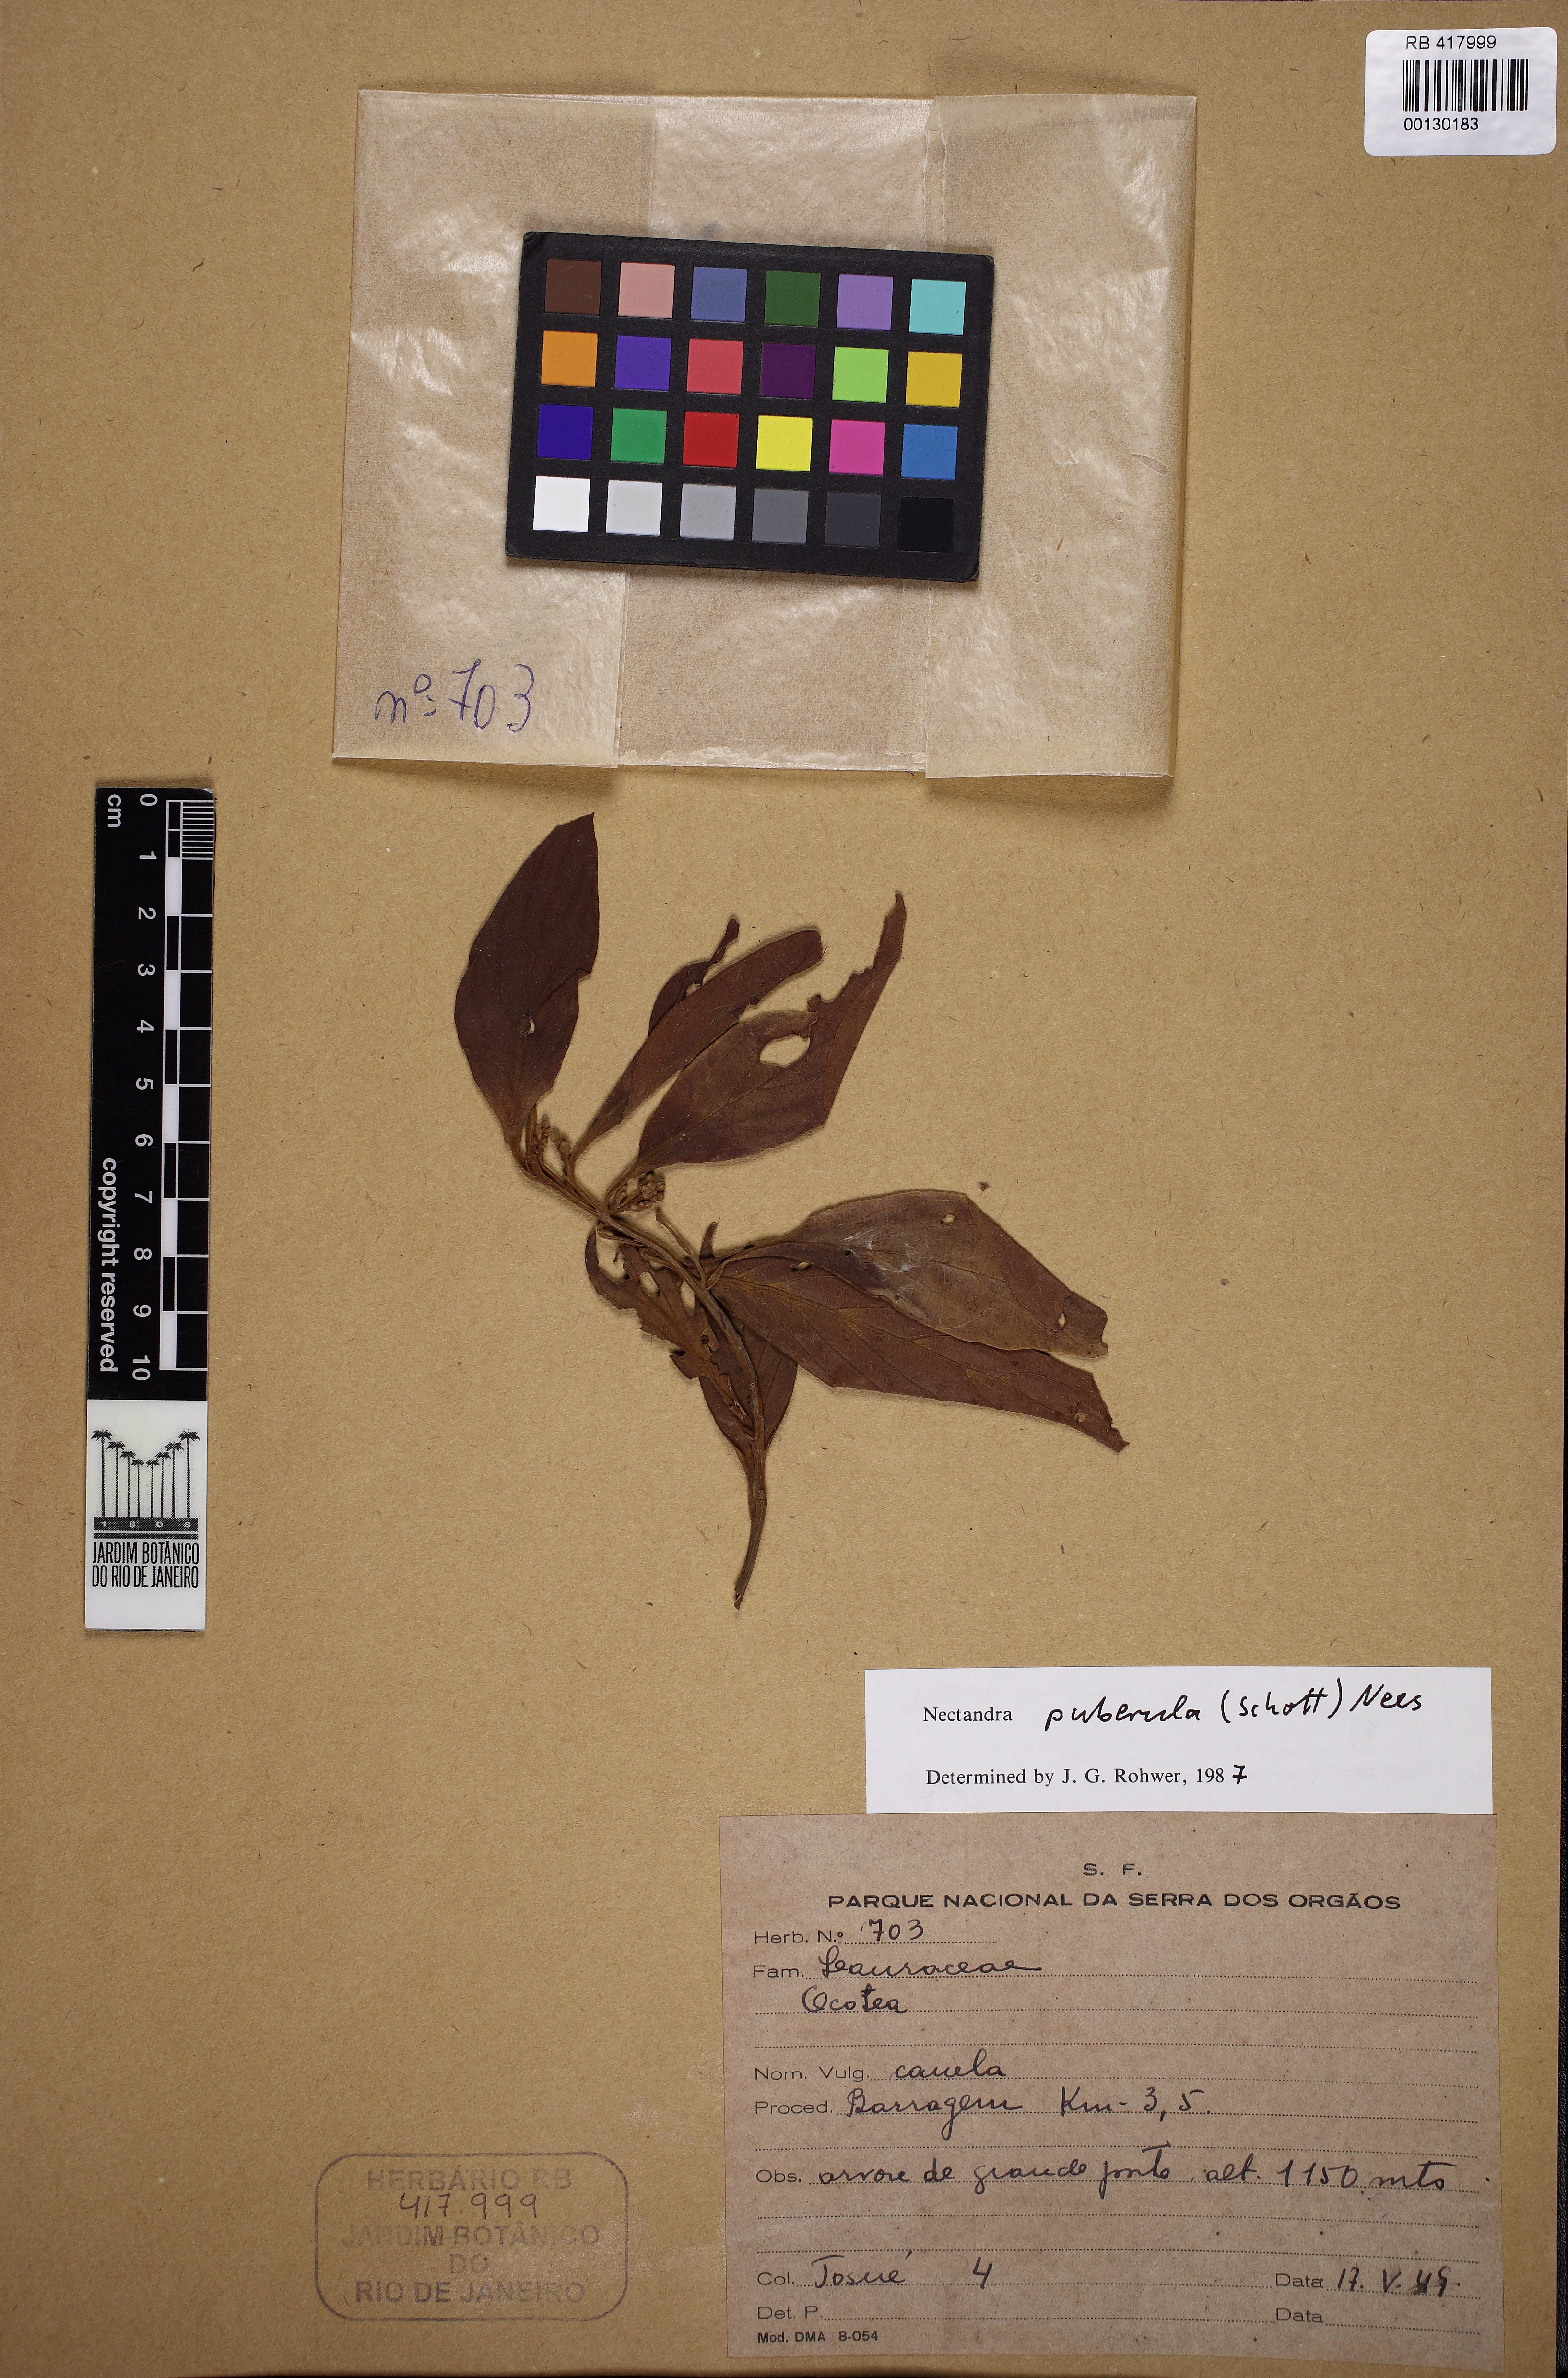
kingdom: Plantae
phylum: Tracheophyta
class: Magnoliopsida
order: Laurales
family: Lauraceae
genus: Nectandra
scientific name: Nectandra puberula
